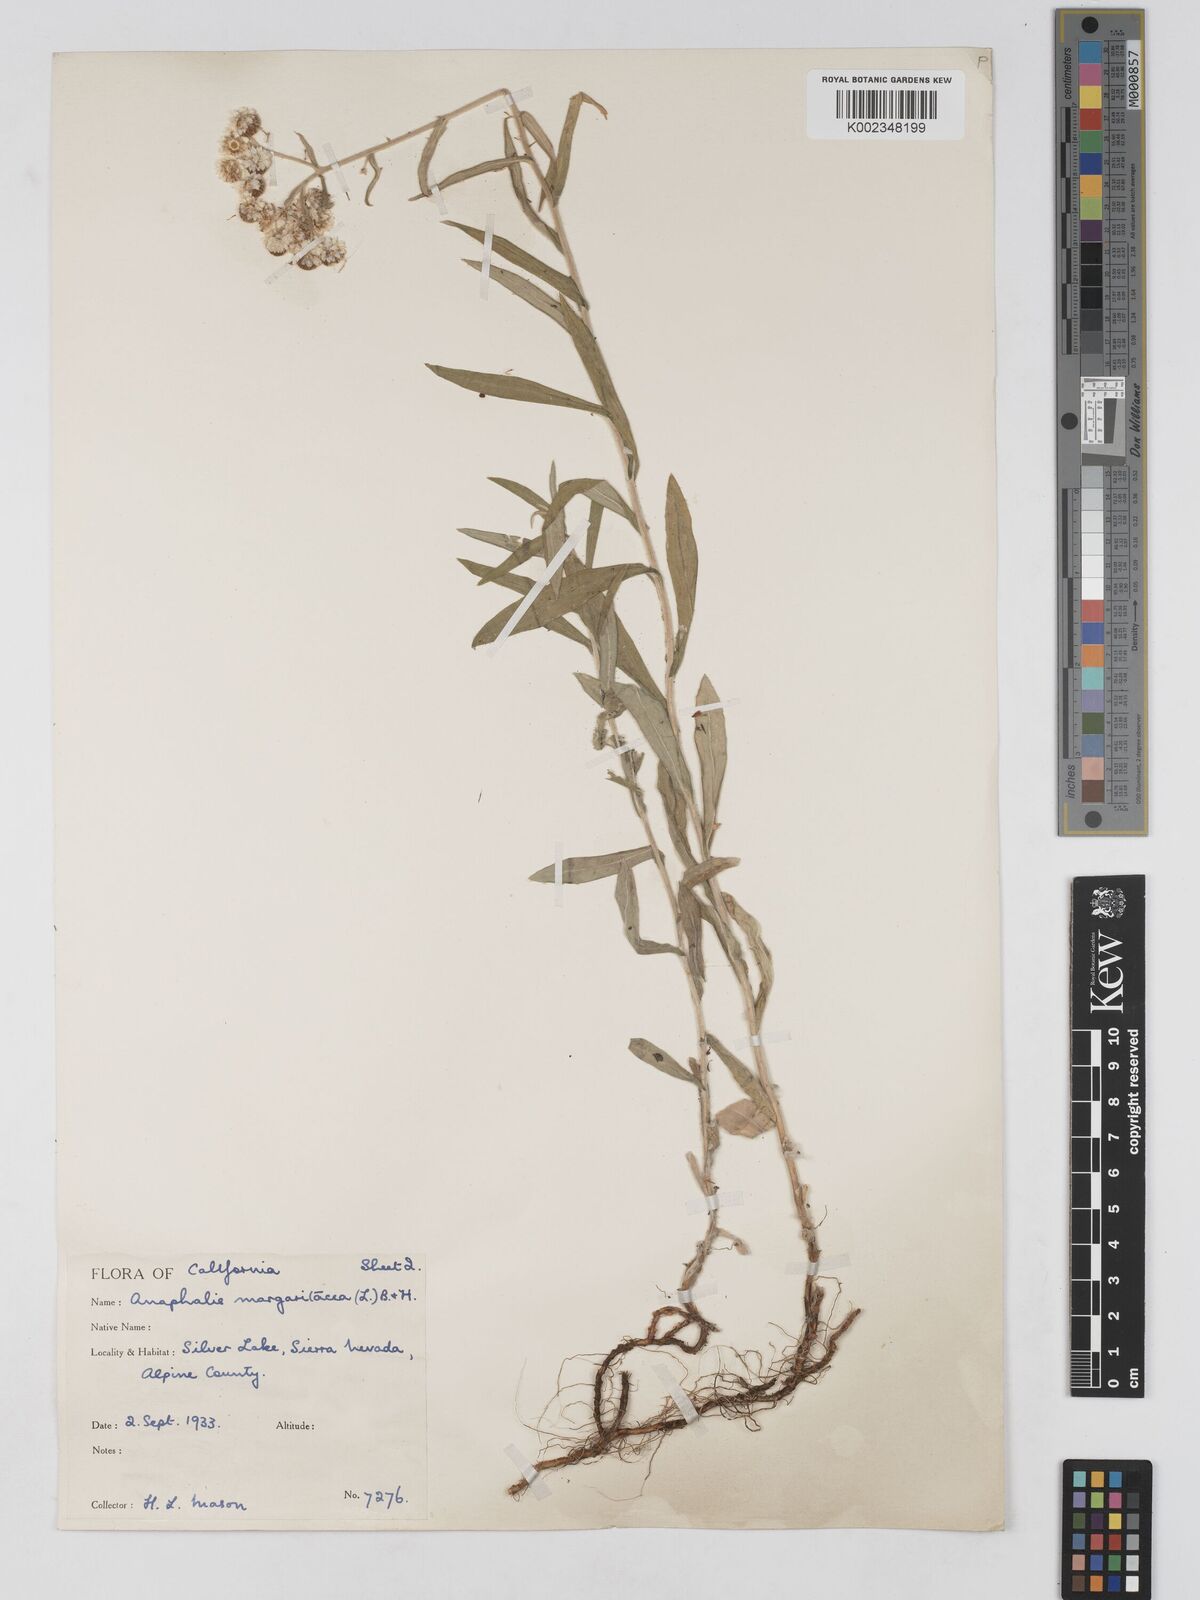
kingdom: Plantae
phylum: Tracheophyta
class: Magnoliopsida
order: Asterales
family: Asteraceae
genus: Anaphalis
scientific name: Anaphalis margaritacea
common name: Pearly everlasting
